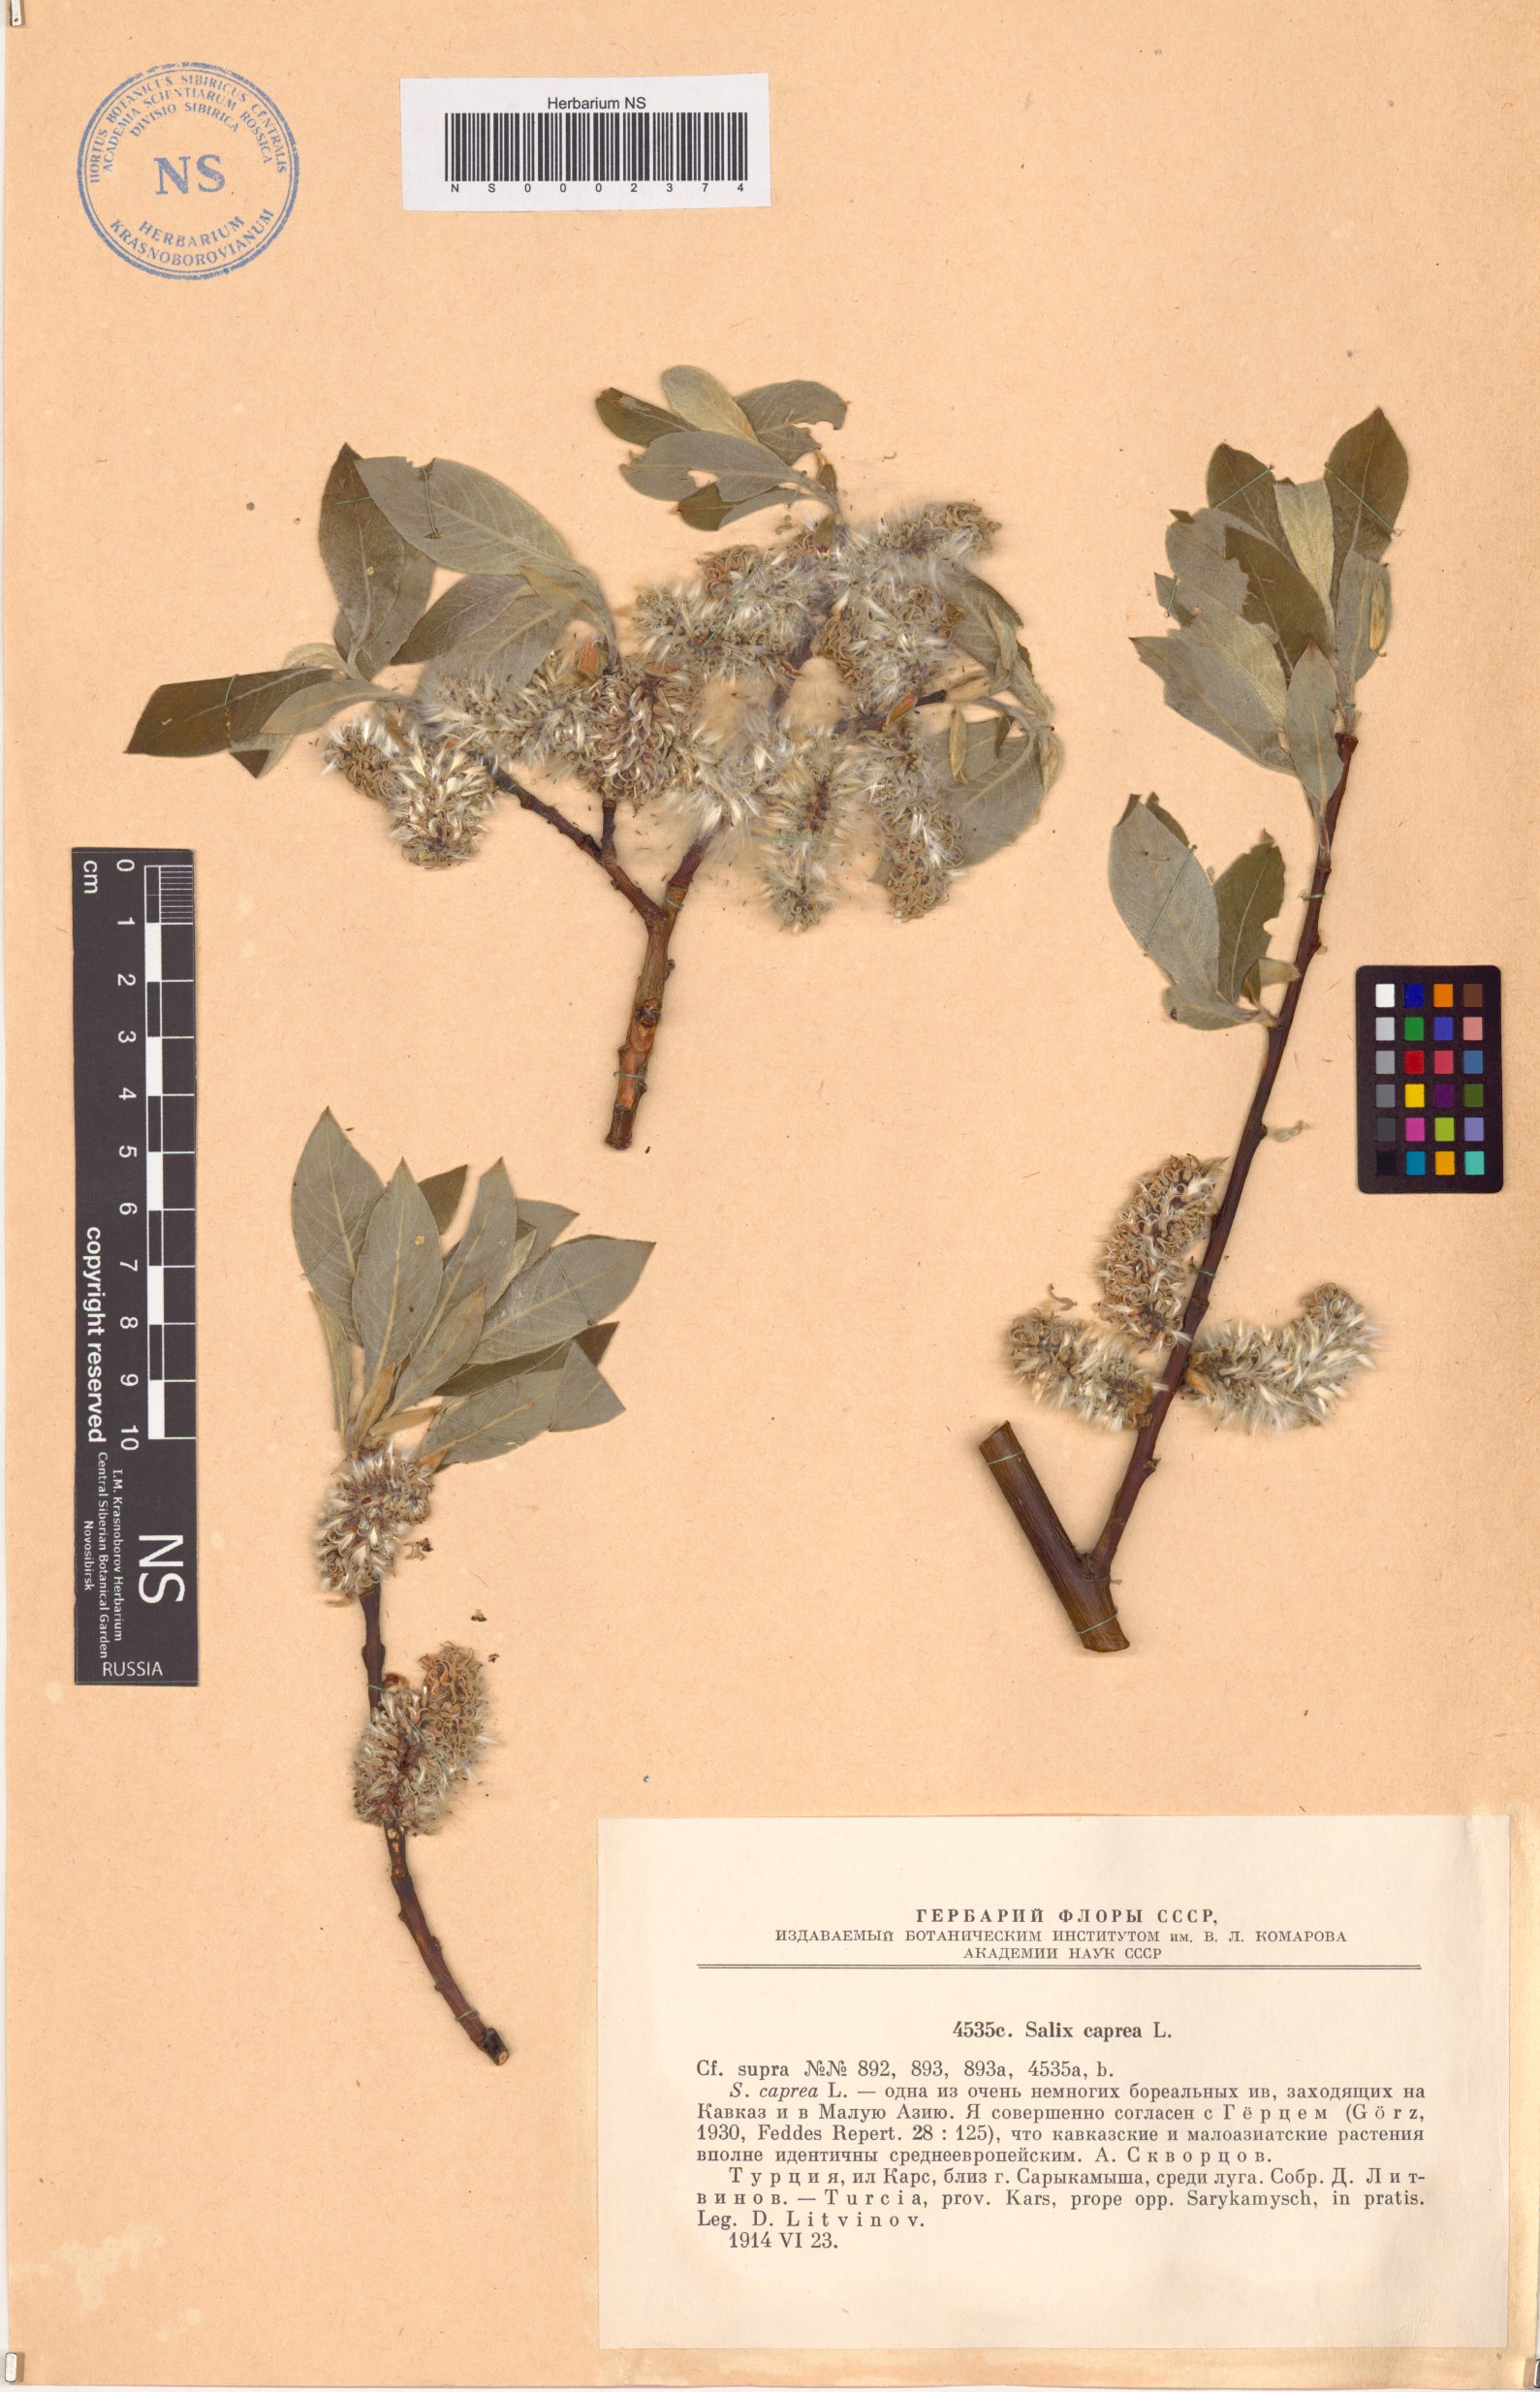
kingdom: Plantae
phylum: Tracheophyta
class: Magnoliopsida
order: Malpighiales
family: Salicaceae
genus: Salix
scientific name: Salix caprea
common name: Goat willow
